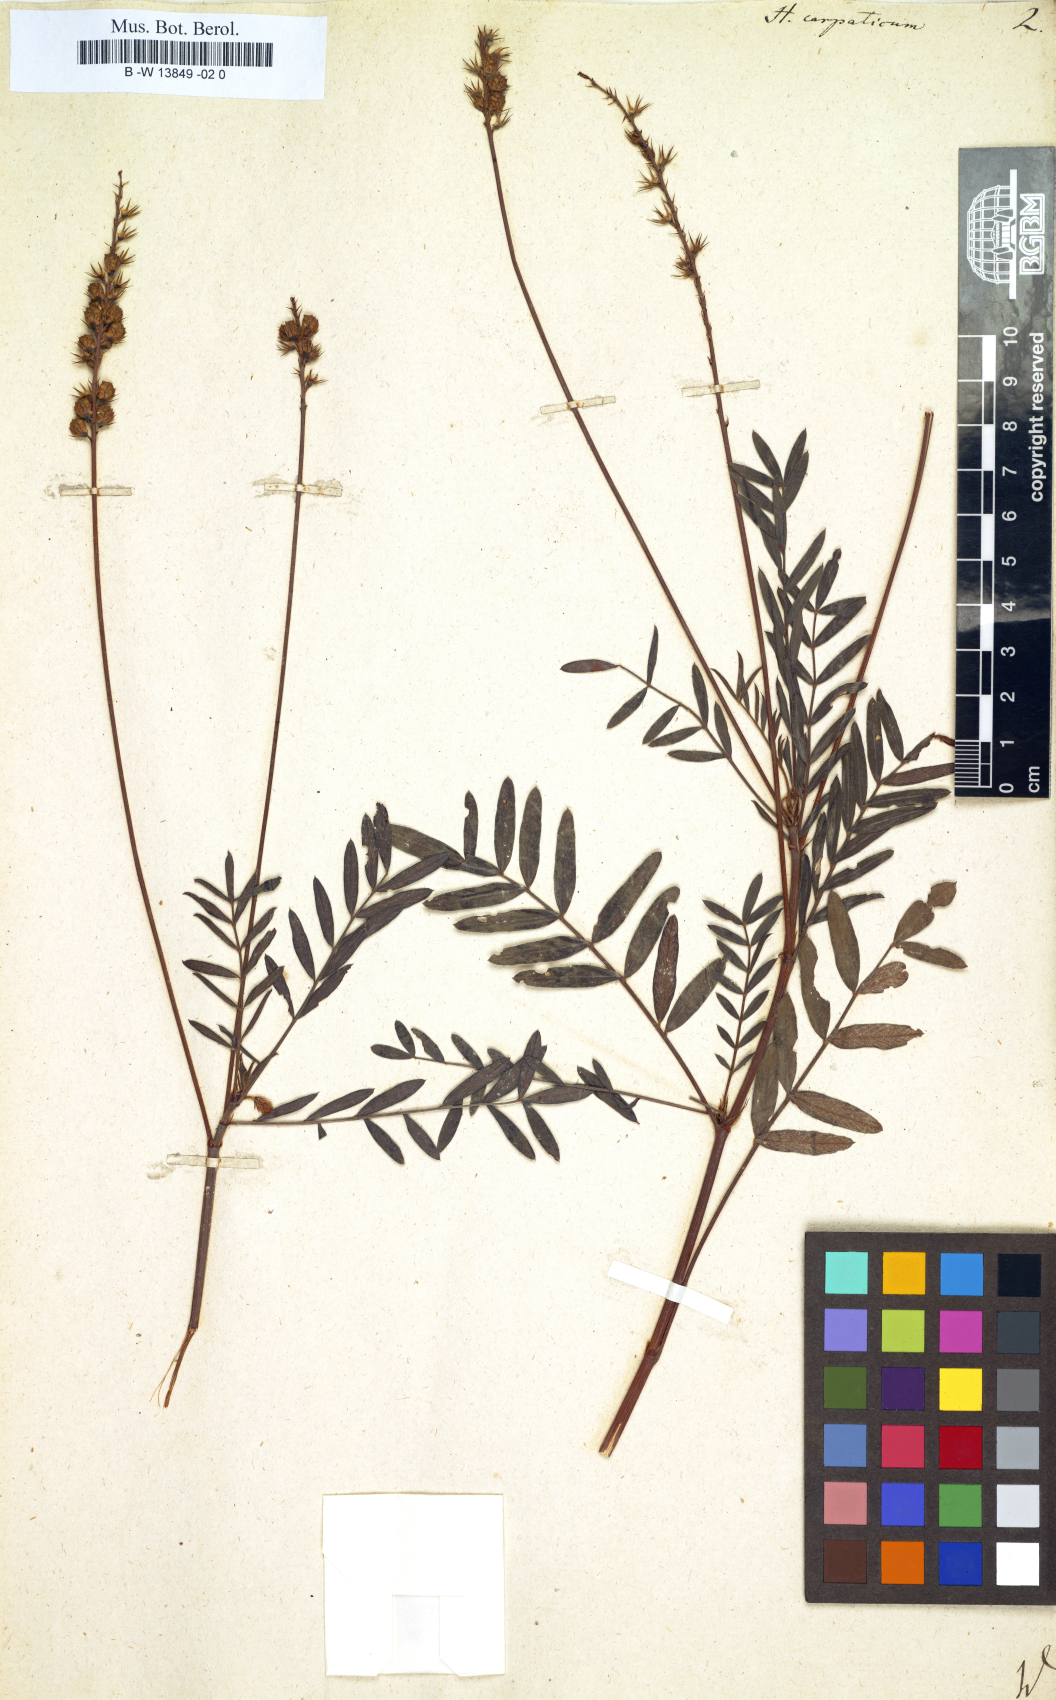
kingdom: Plantae
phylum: Tracheophyta
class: Magnoliopsida
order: Fabales
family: Fabaceae
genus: Hedysarum
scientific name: Hedysarum carpathicum
